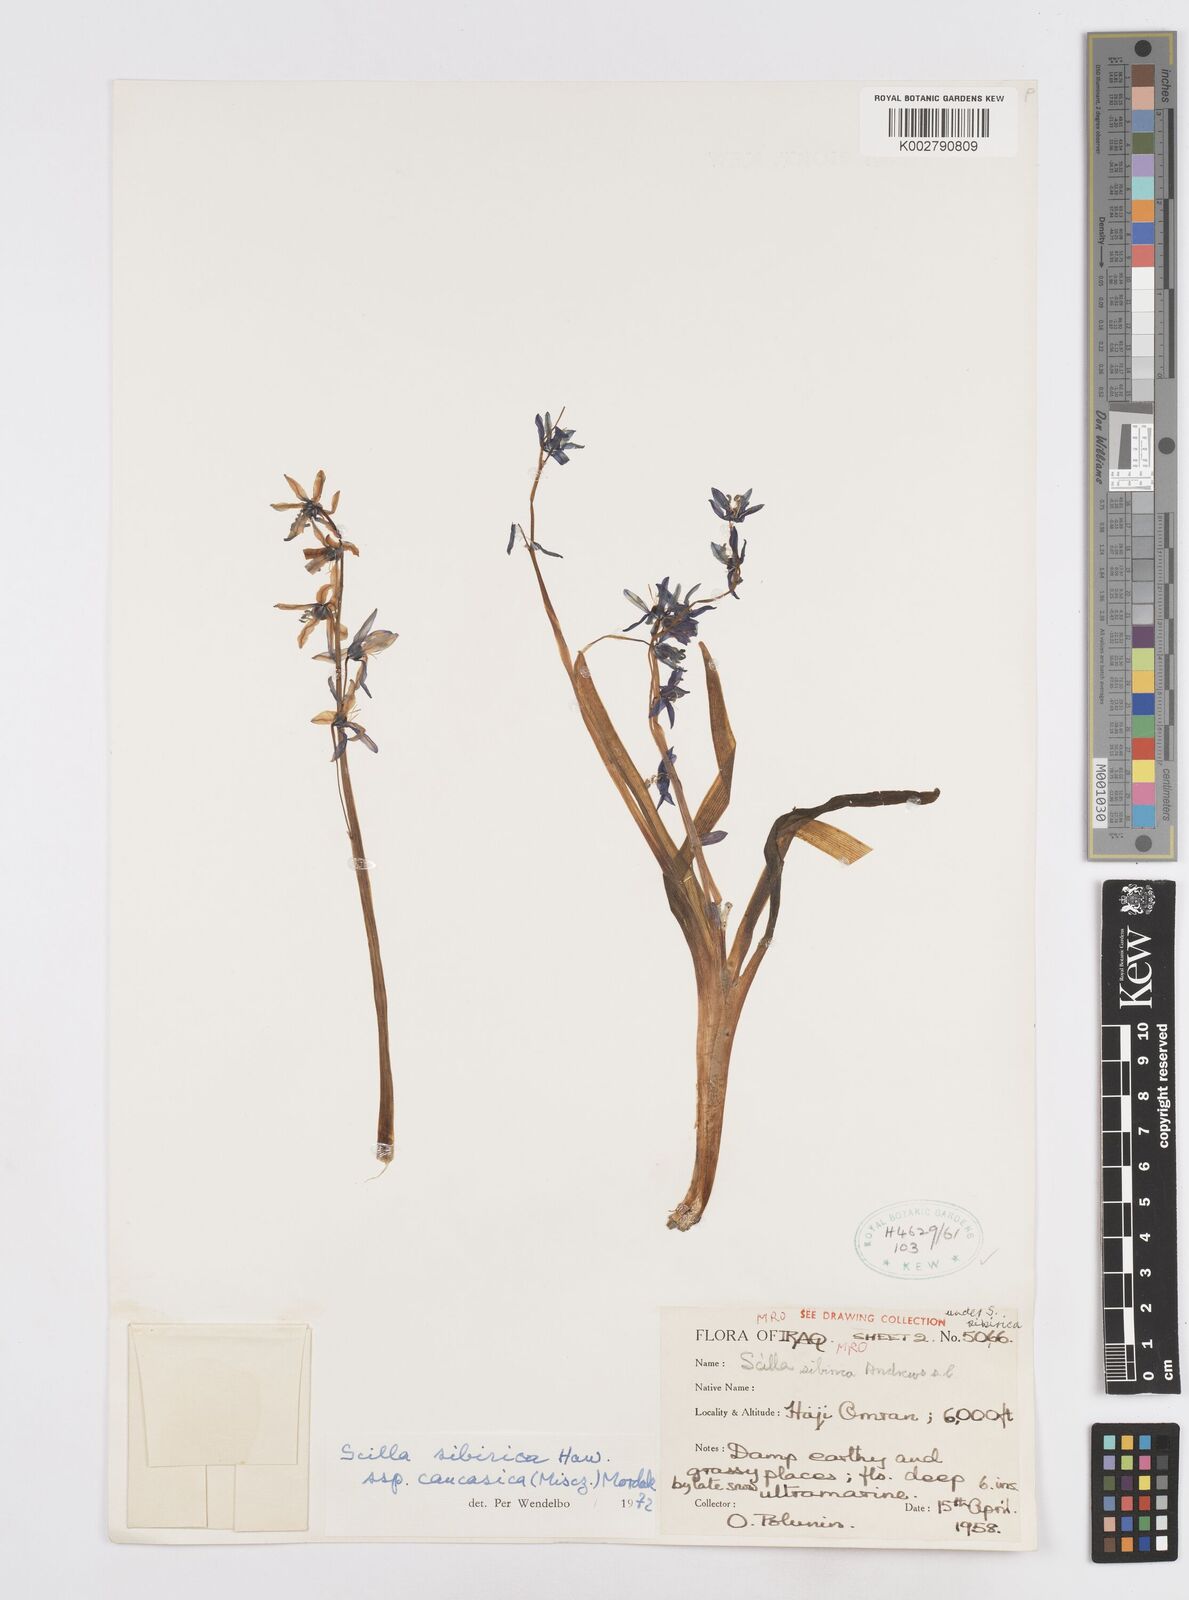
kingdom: Plantae
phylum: Tracheophyta
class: Liliopsida
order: Asparagales
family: Asparagaceae
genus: Scilla
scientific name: Scilla siberica
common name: Siberian squill
